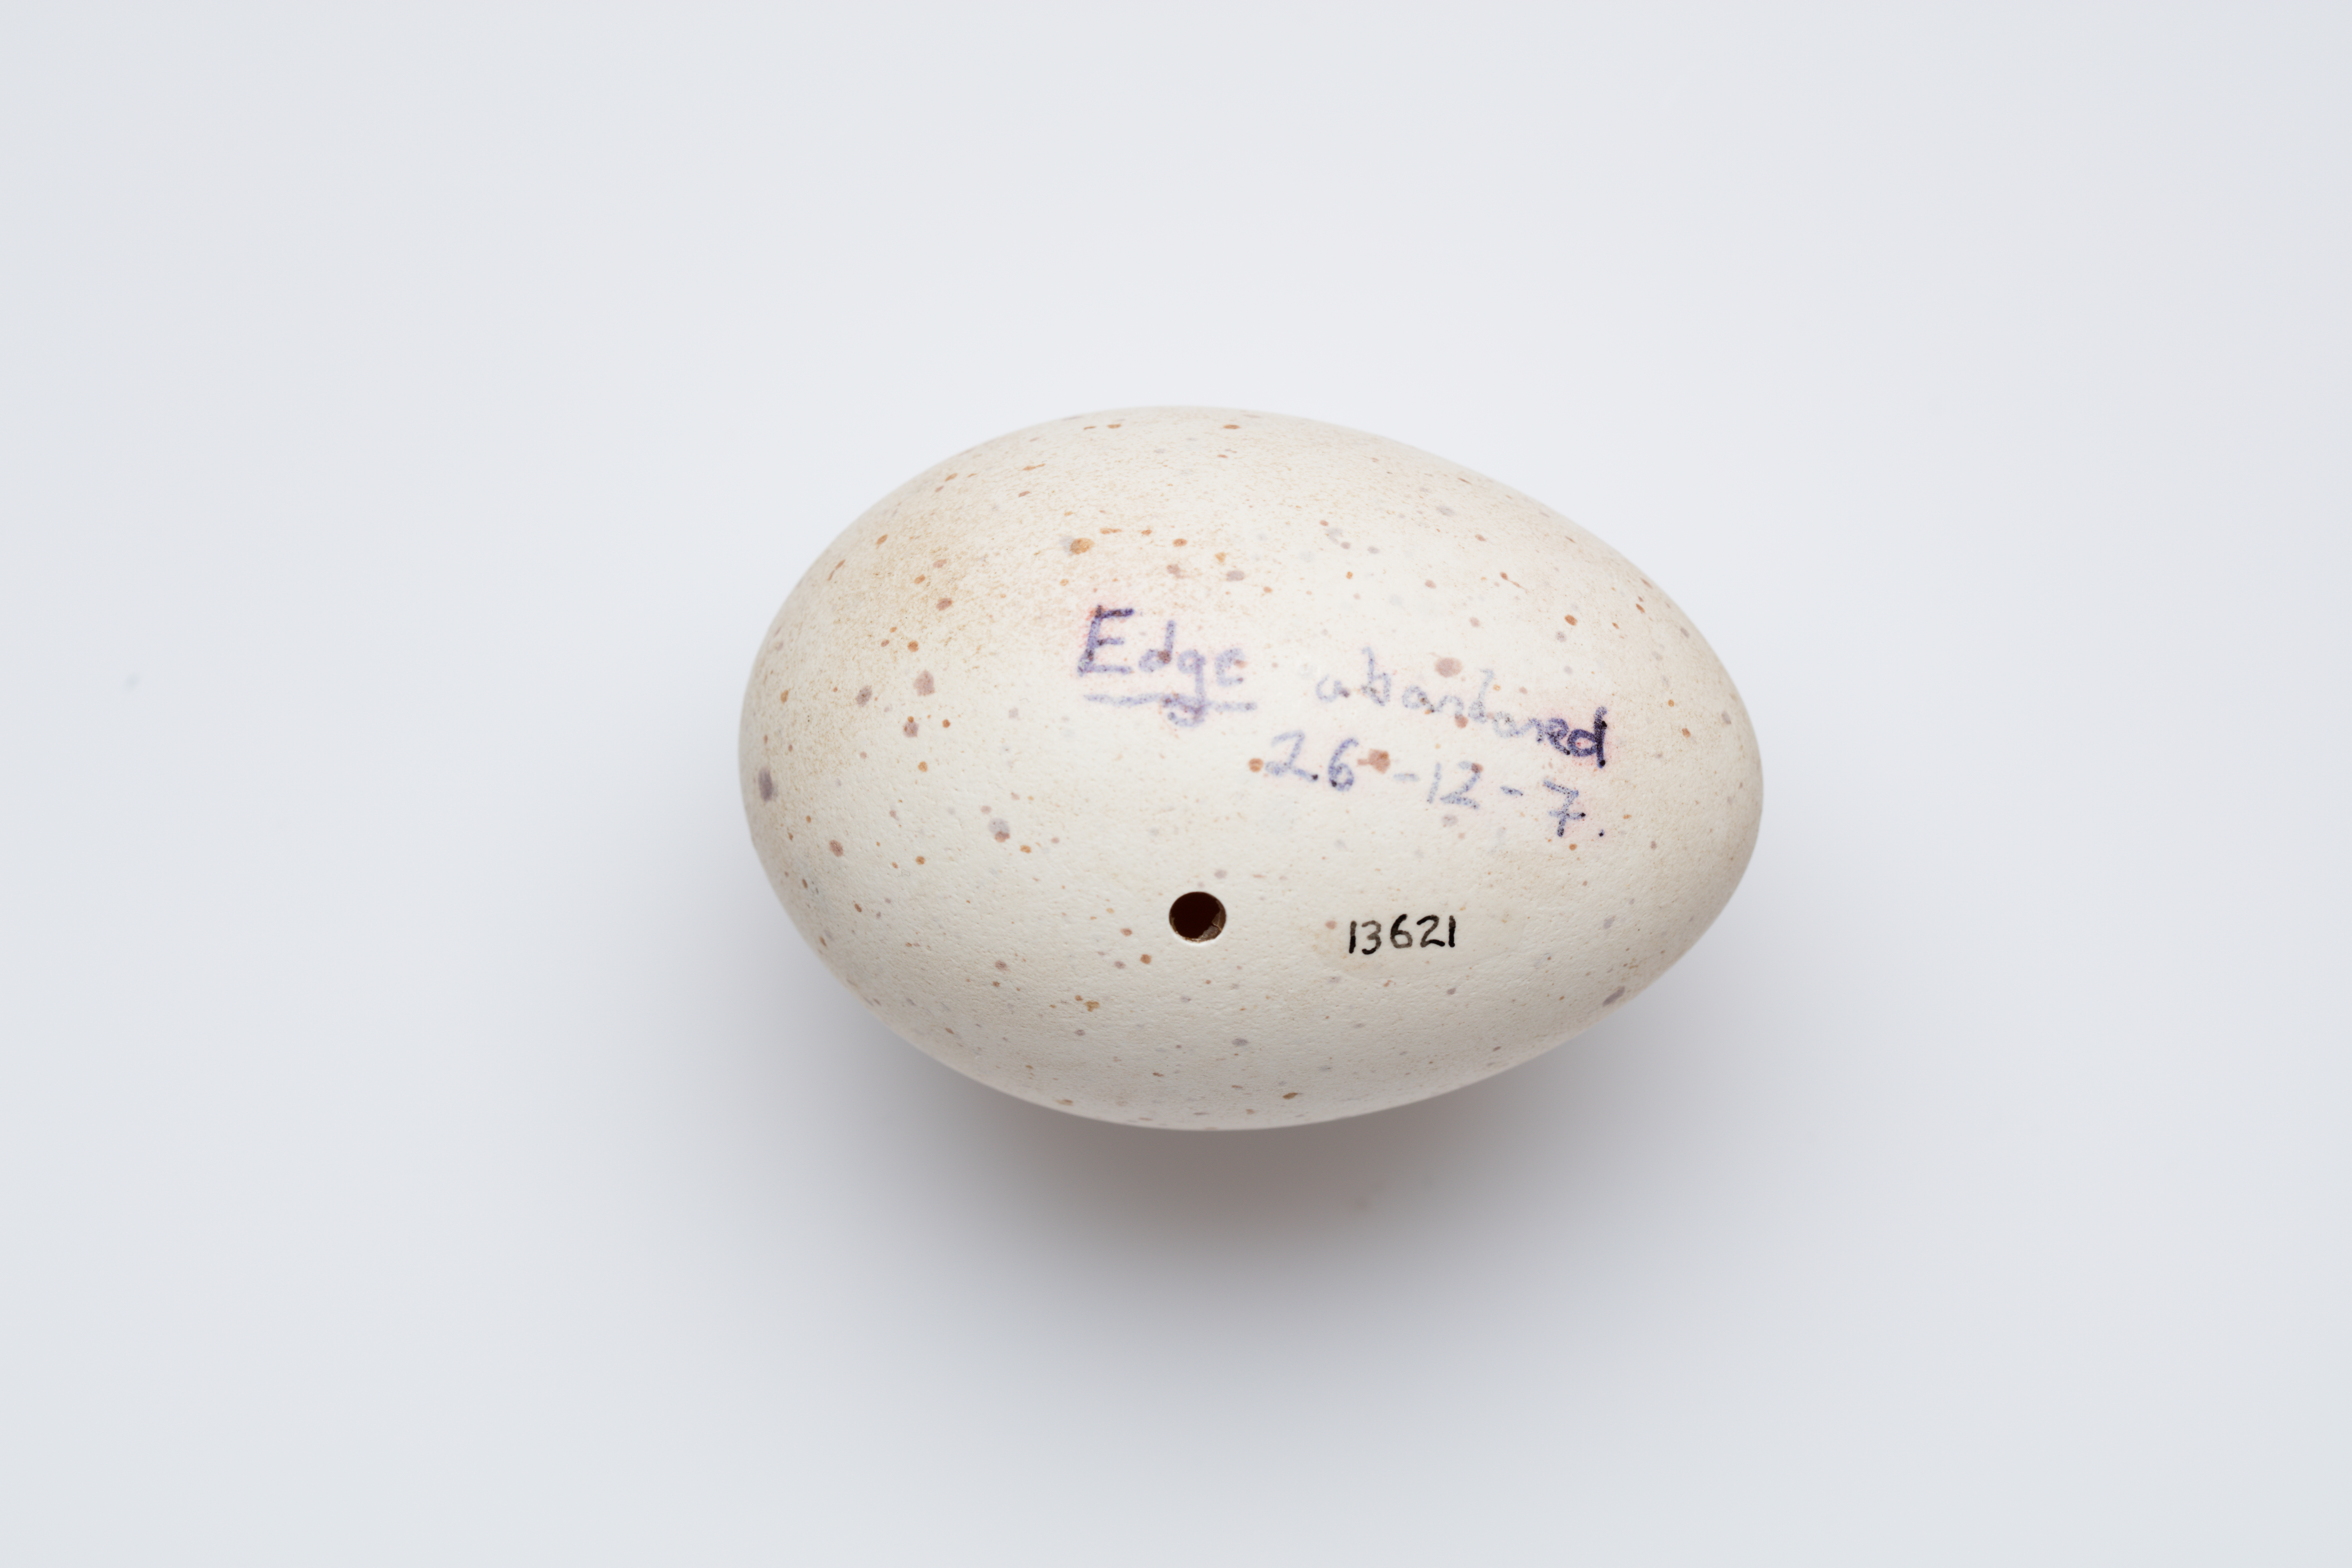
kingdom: Animalia
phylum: Chordata
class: Aves
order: Gruiformes
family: Rallidae
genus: Porphyrio
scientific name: Porphyrio hochstetteri
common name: South island takahe
